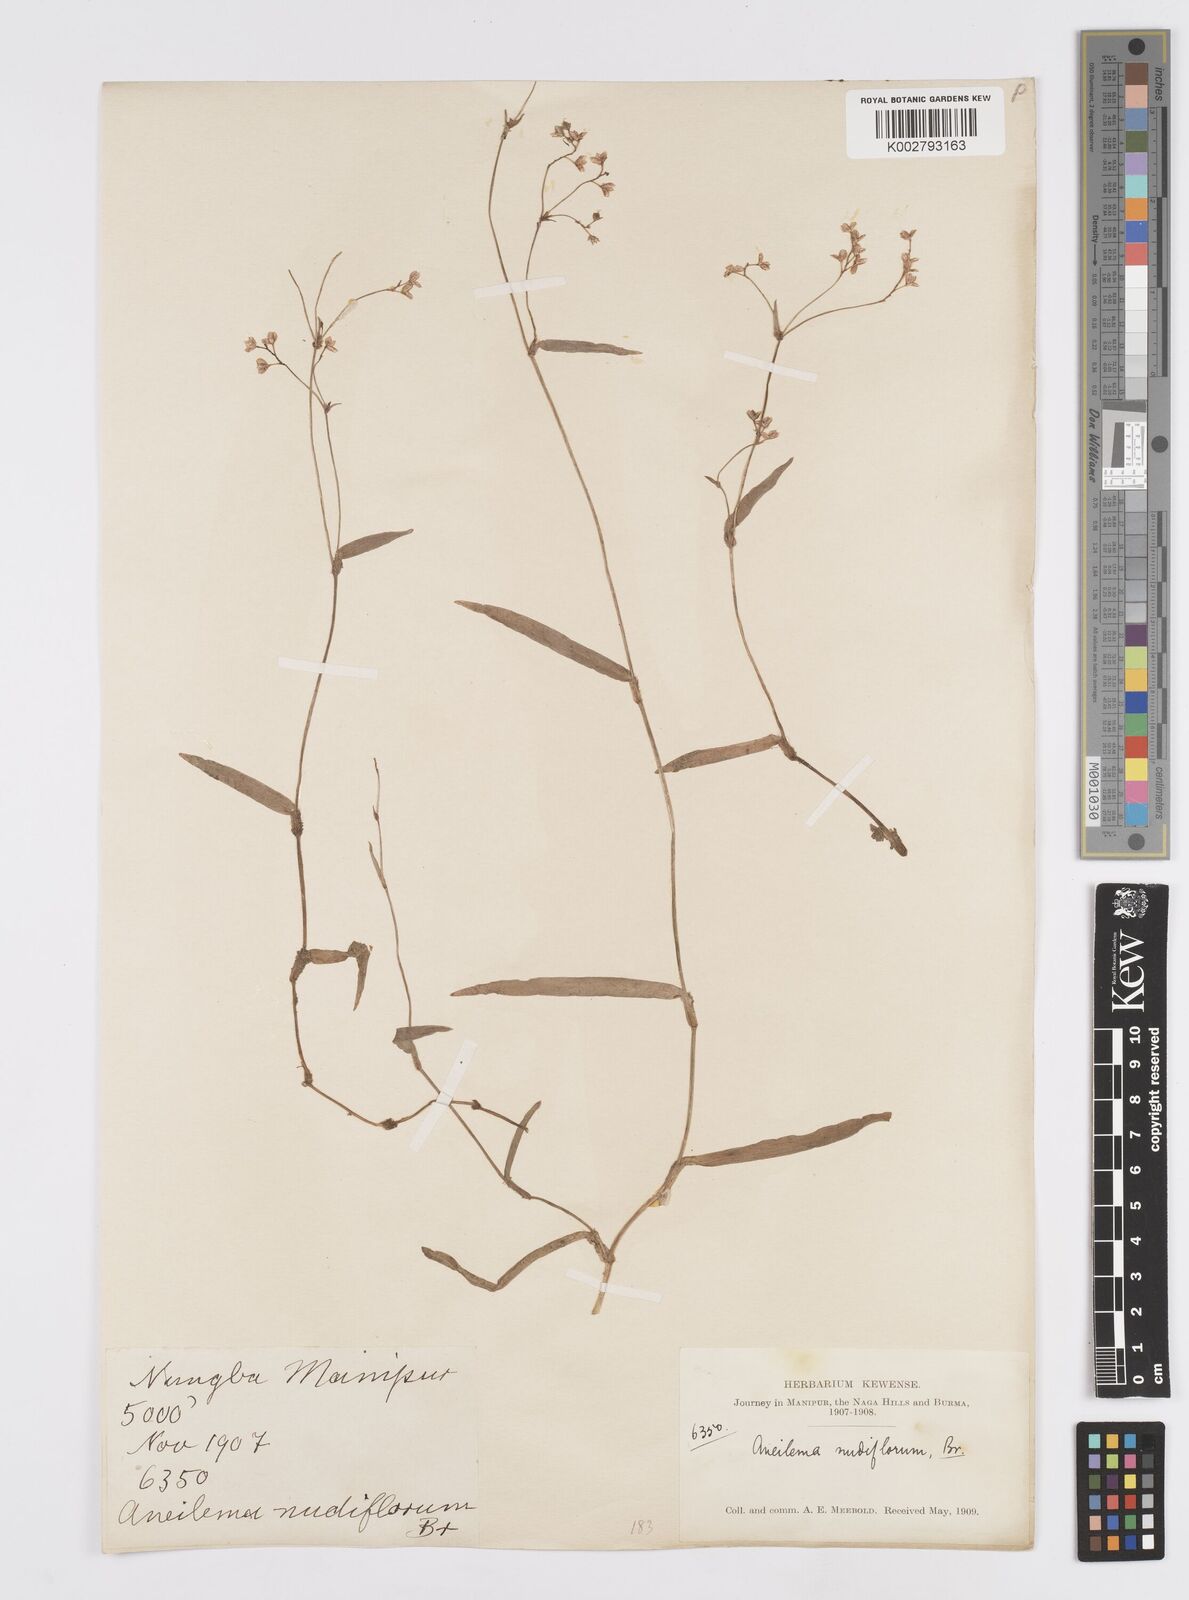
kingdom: Plantae
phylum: Tracheophyta
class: Liliopsida
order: Commelinales
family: Commelinaceae
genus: Murdannia
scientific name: Murdannia
